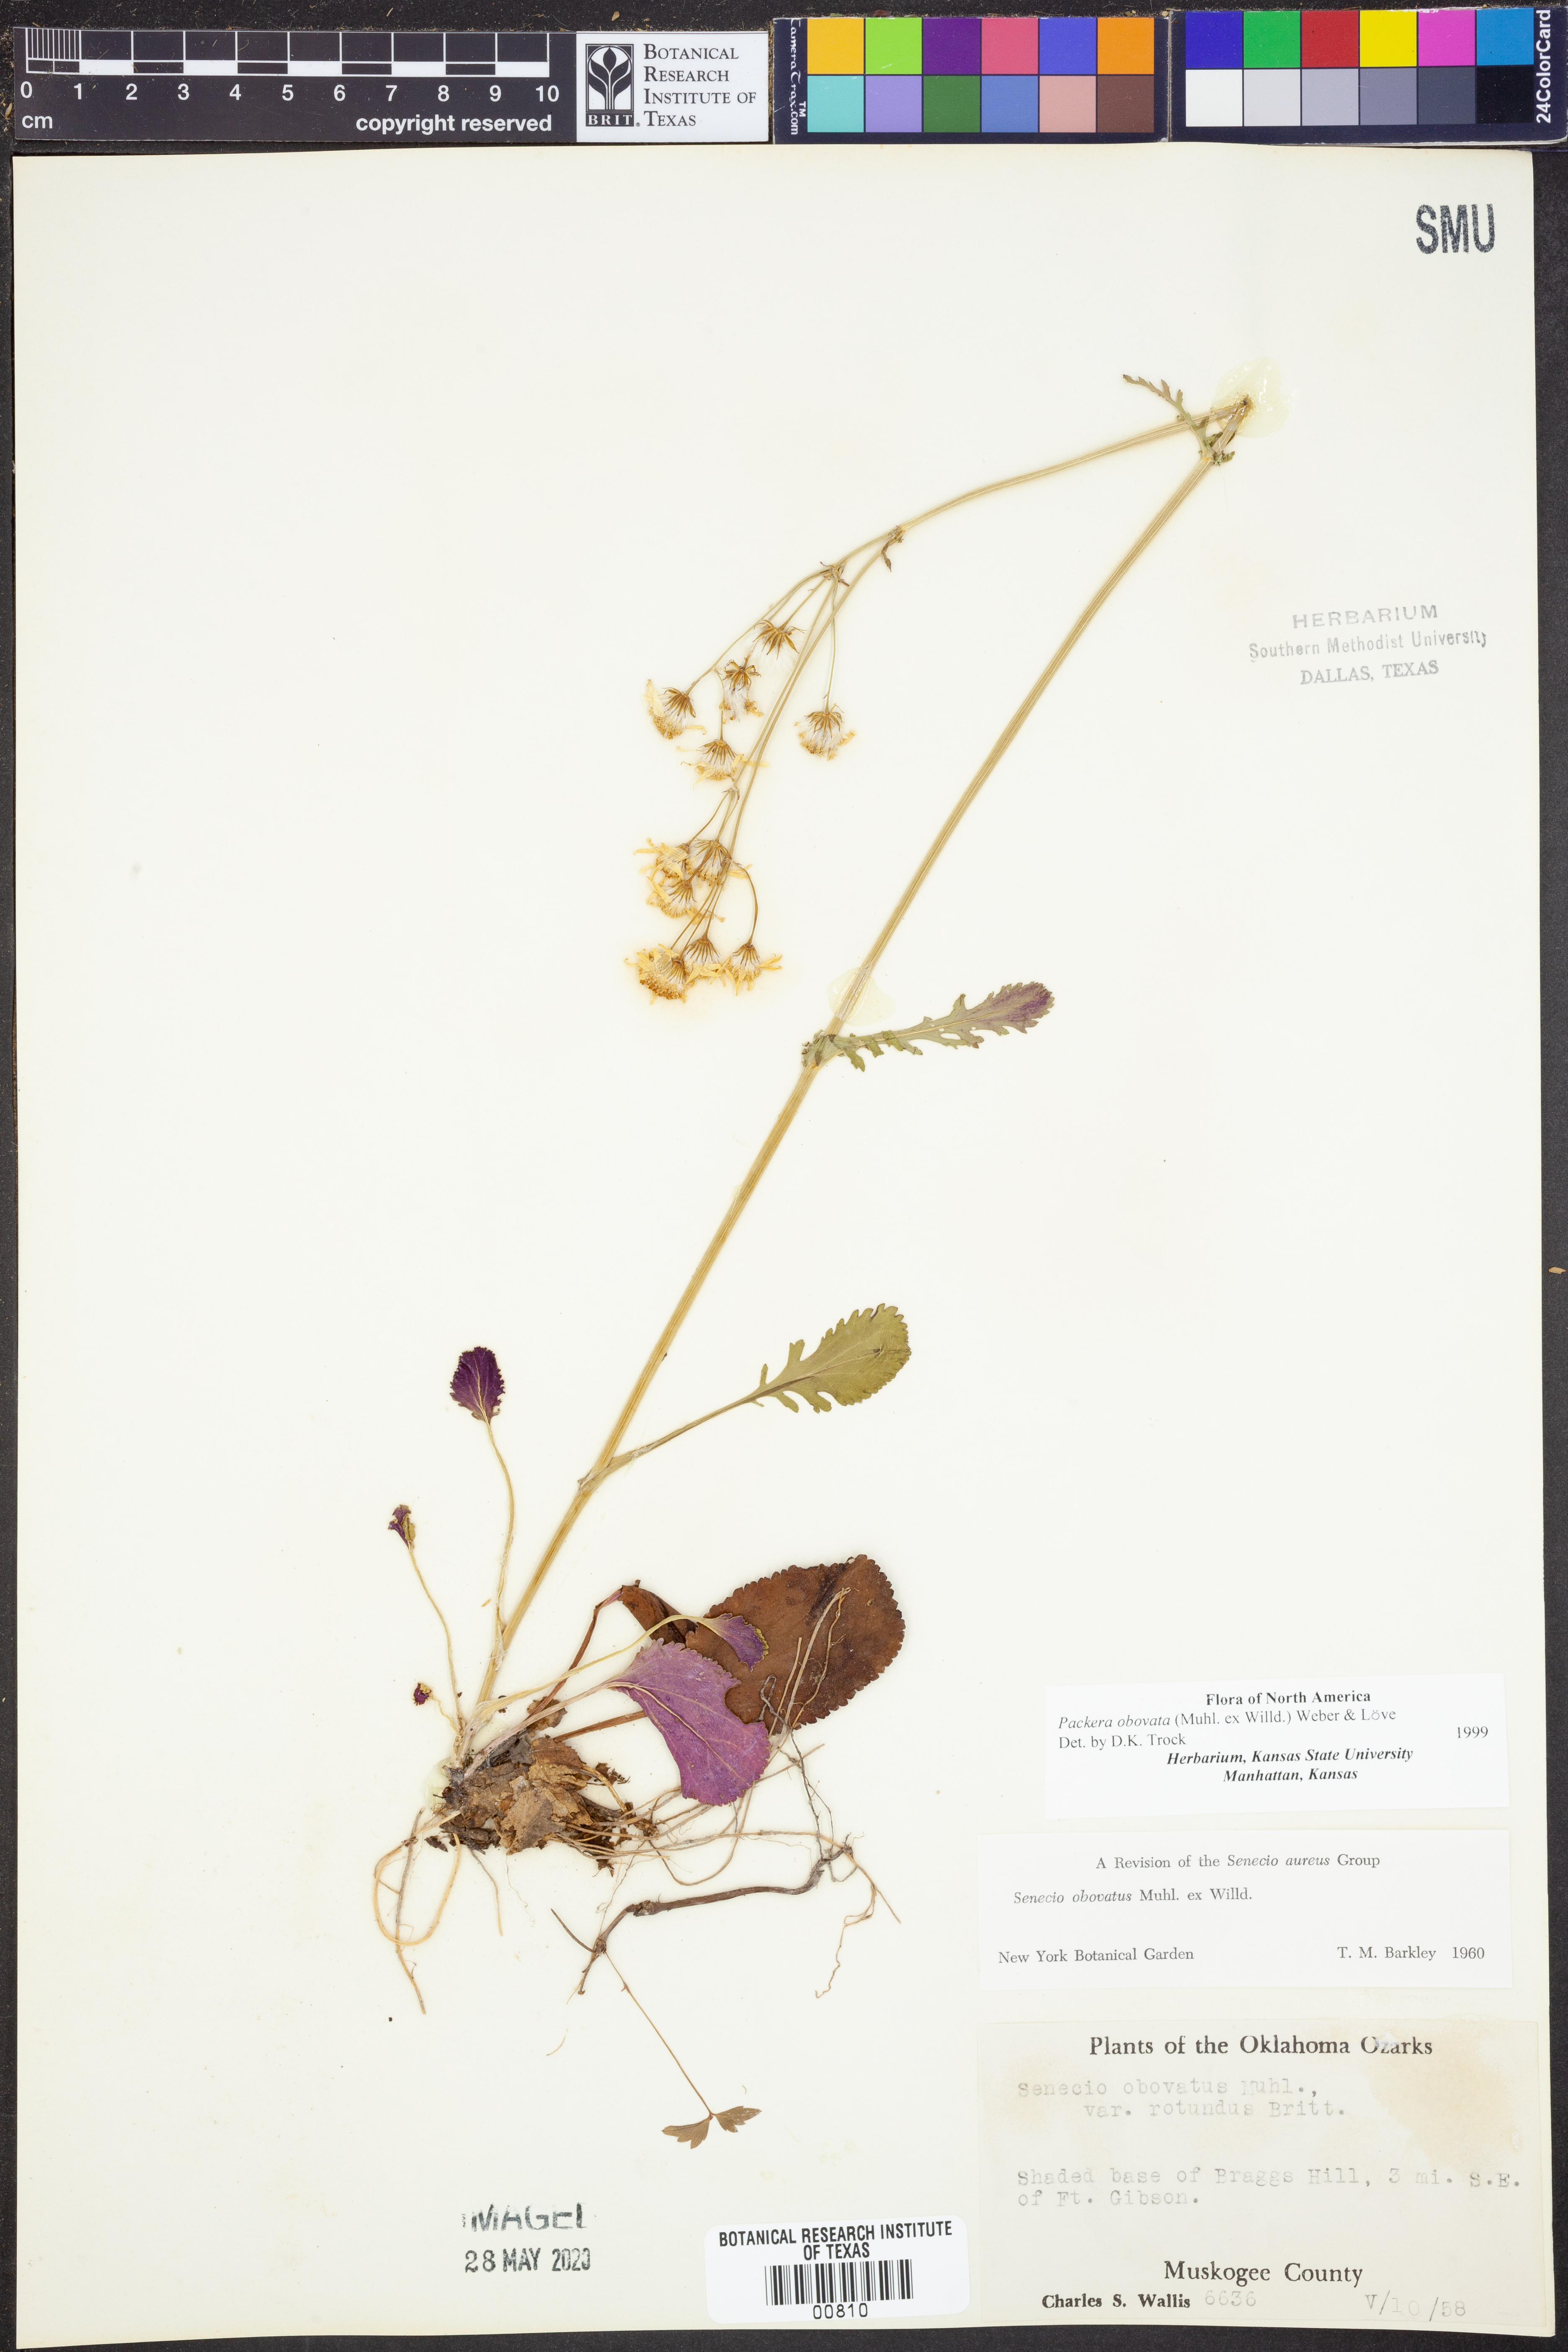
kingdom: Plantae
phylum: Tracheophyta
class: Magnoliopsida
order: Asterales
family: Asteraceae
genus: Packera
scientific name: Packera obovata
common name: Round-leaf ragwort
